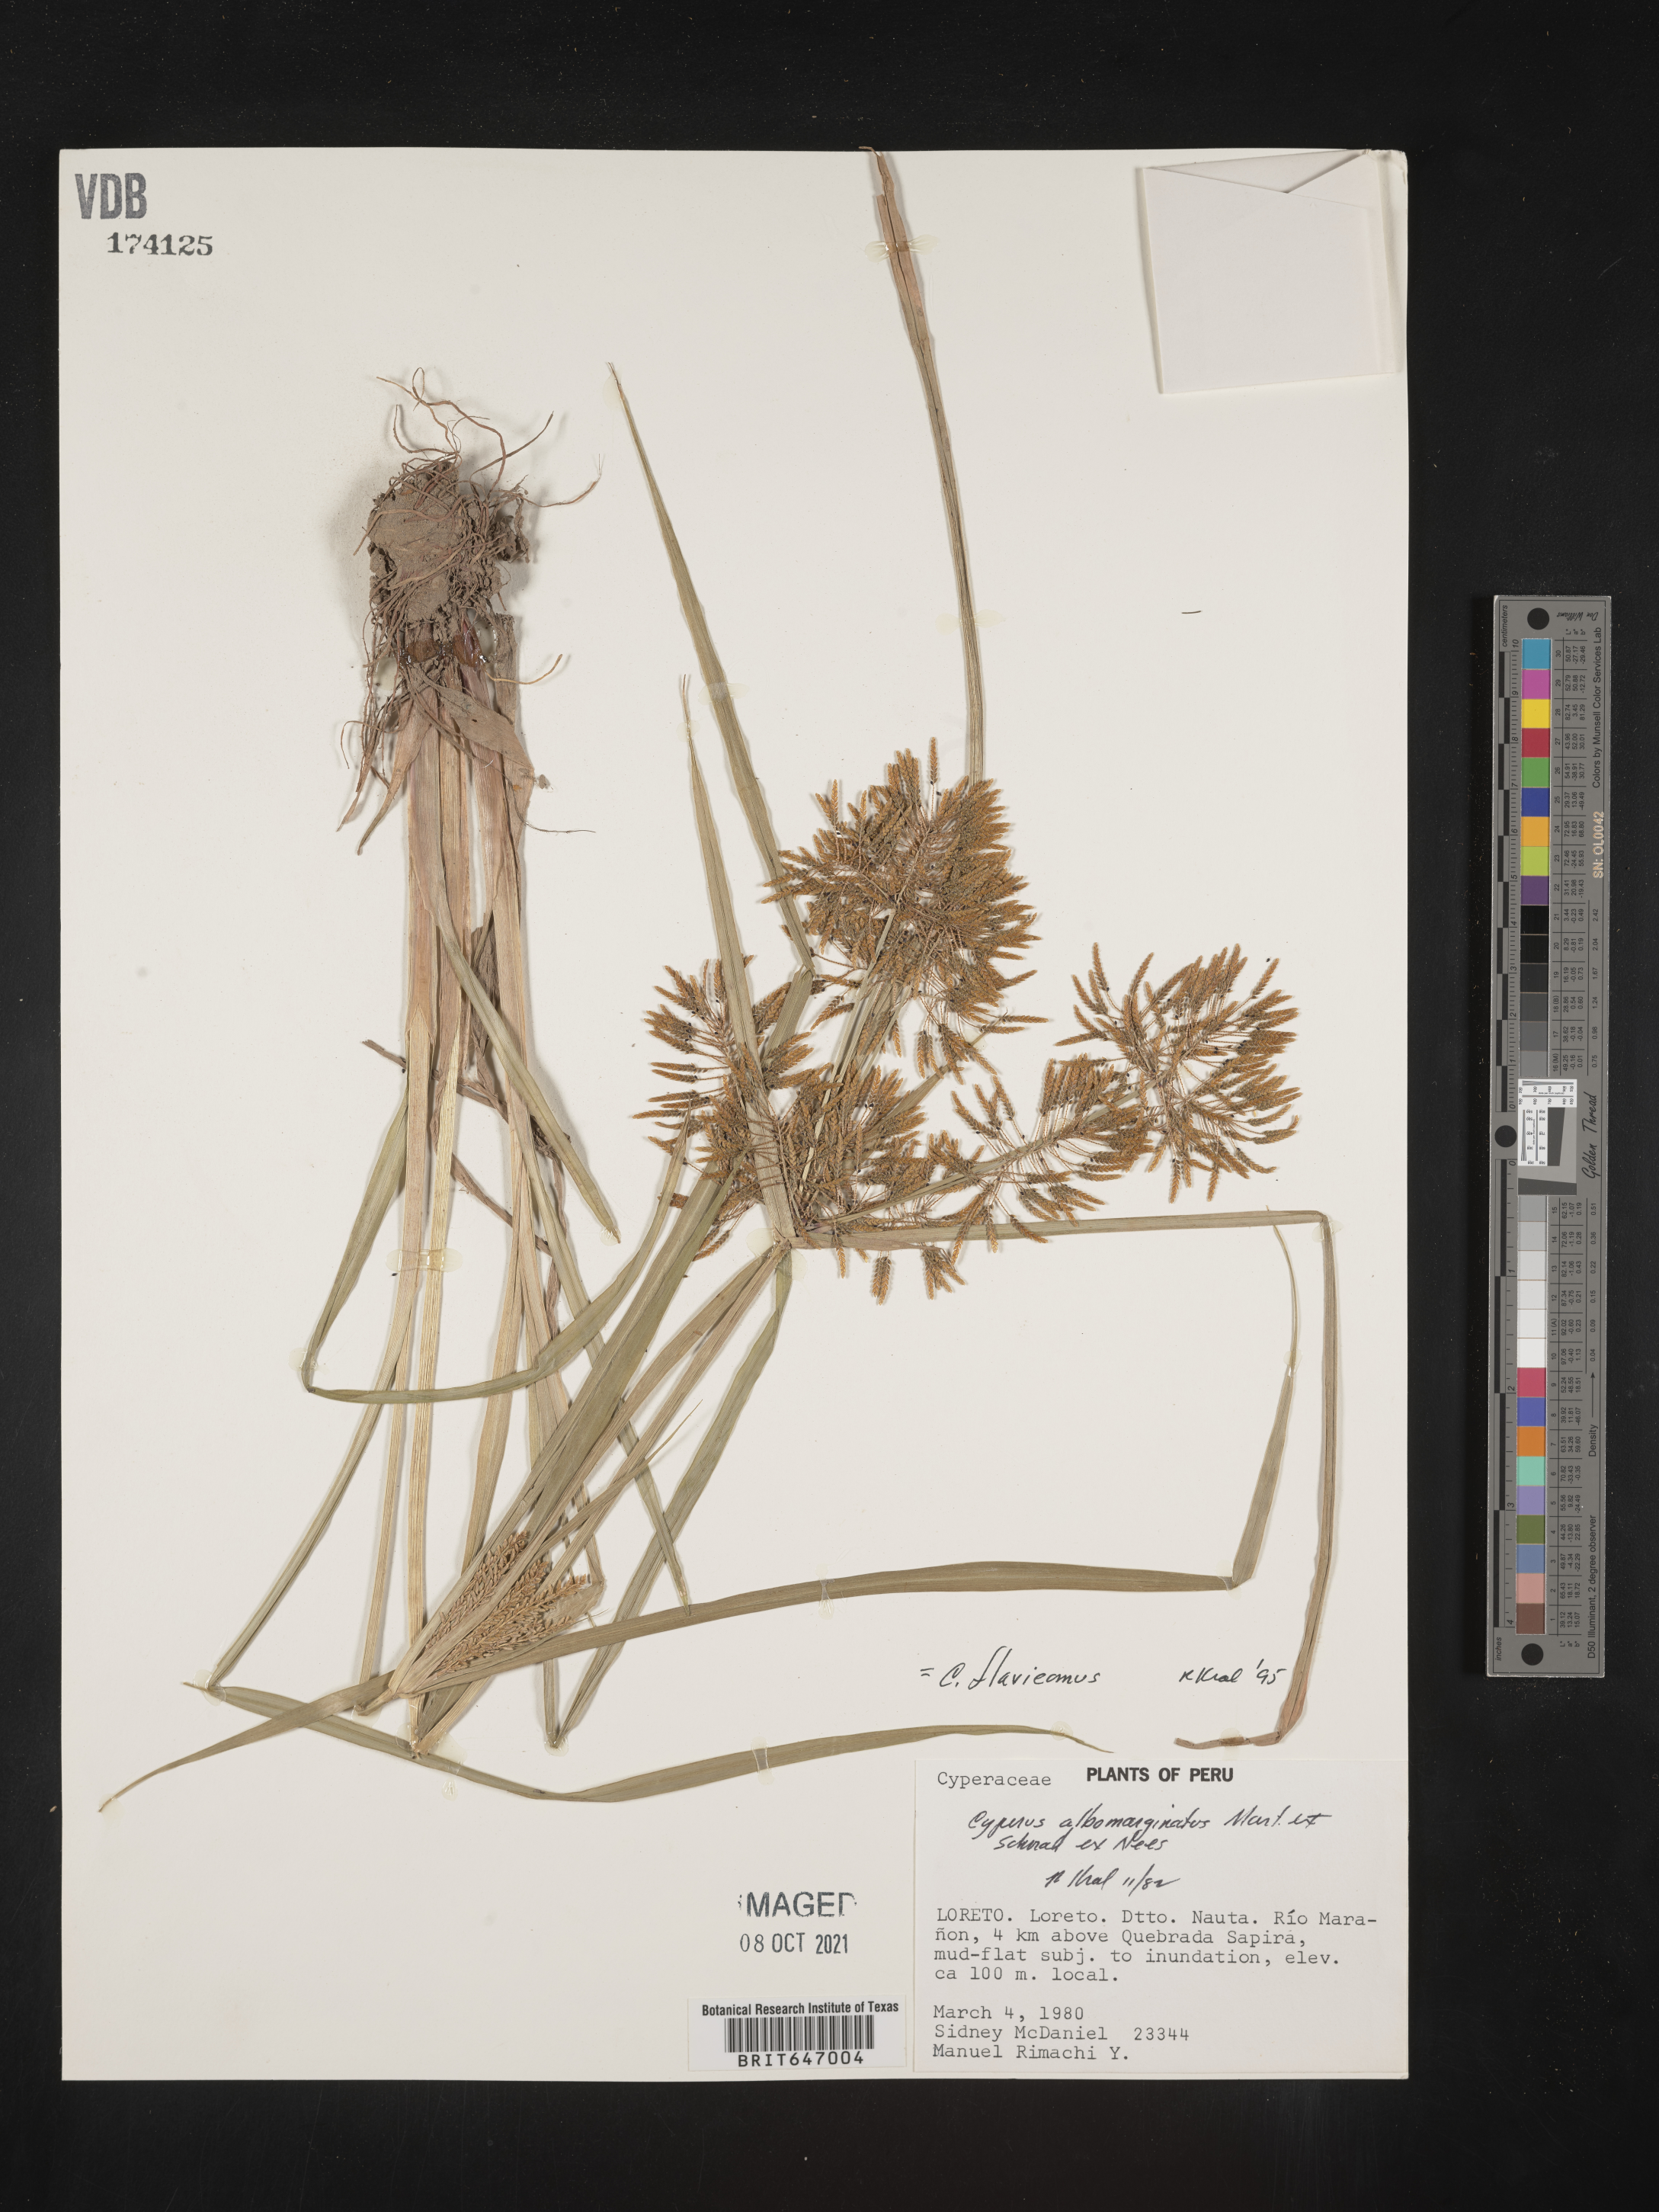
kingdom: Plantae
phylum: Tracheophyta
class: Liliopsida
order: Poales
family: Cyperaceae
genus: Cyperus
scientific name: Cyperus macrostachyos
